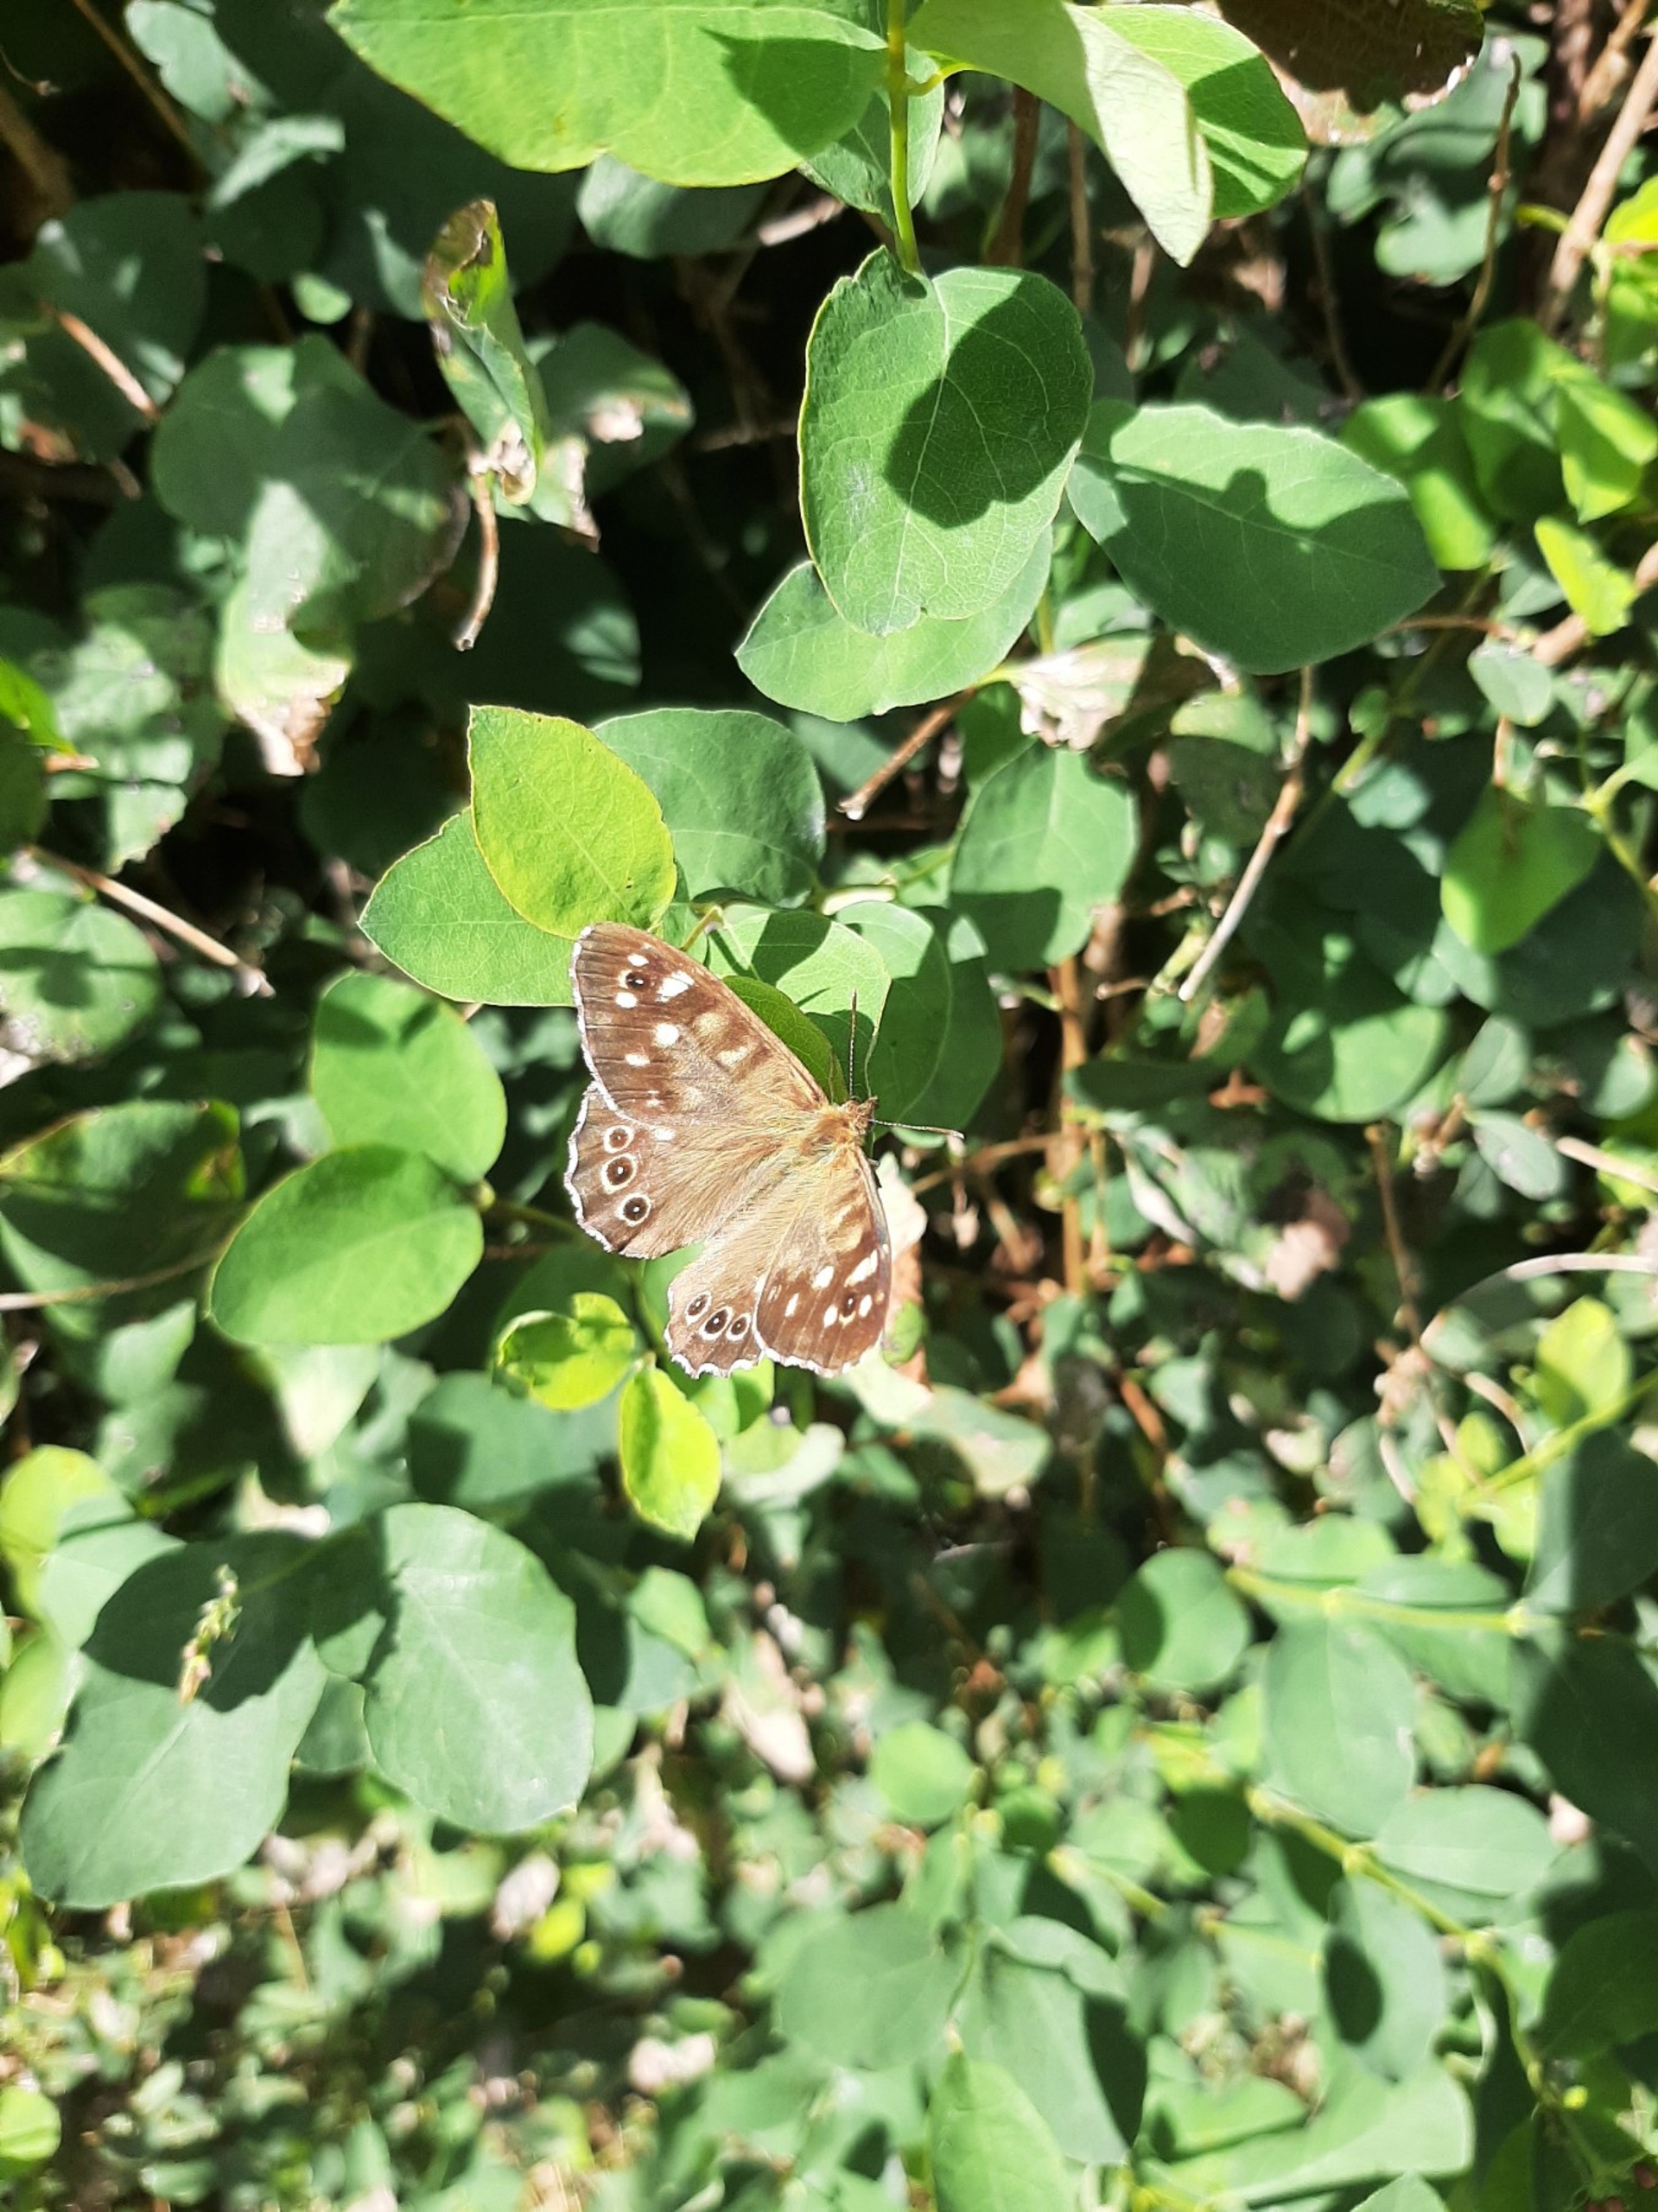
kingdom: Animalia
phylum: Arthropoda
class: Insecta
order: Lepidoptera
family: Nymphalidae
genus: Pararge
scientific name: Pararge aegeria
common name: Skovrandøje
